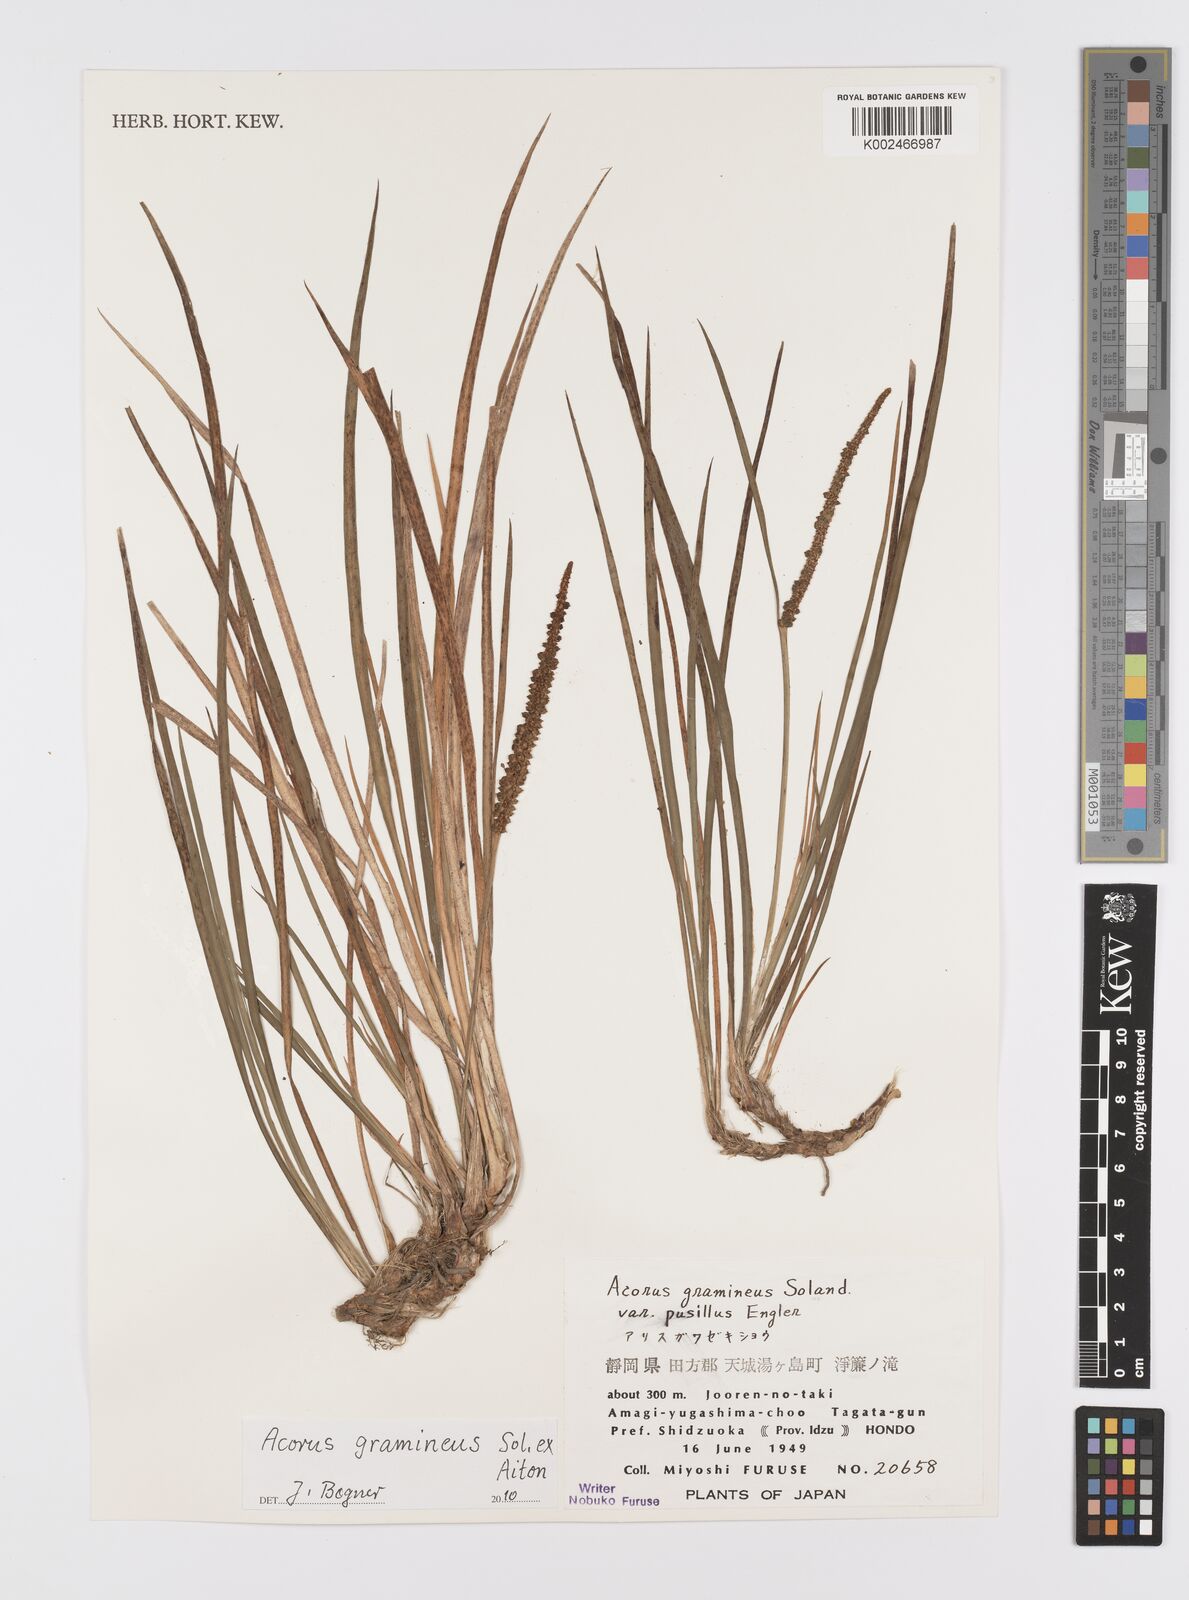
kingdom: Plantae
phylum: Tracheophyta
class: Liliopsida
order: Acorales
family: Acoraceae
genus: Acorus
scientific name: Acorus gramineus
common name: Slender sweet-flag
